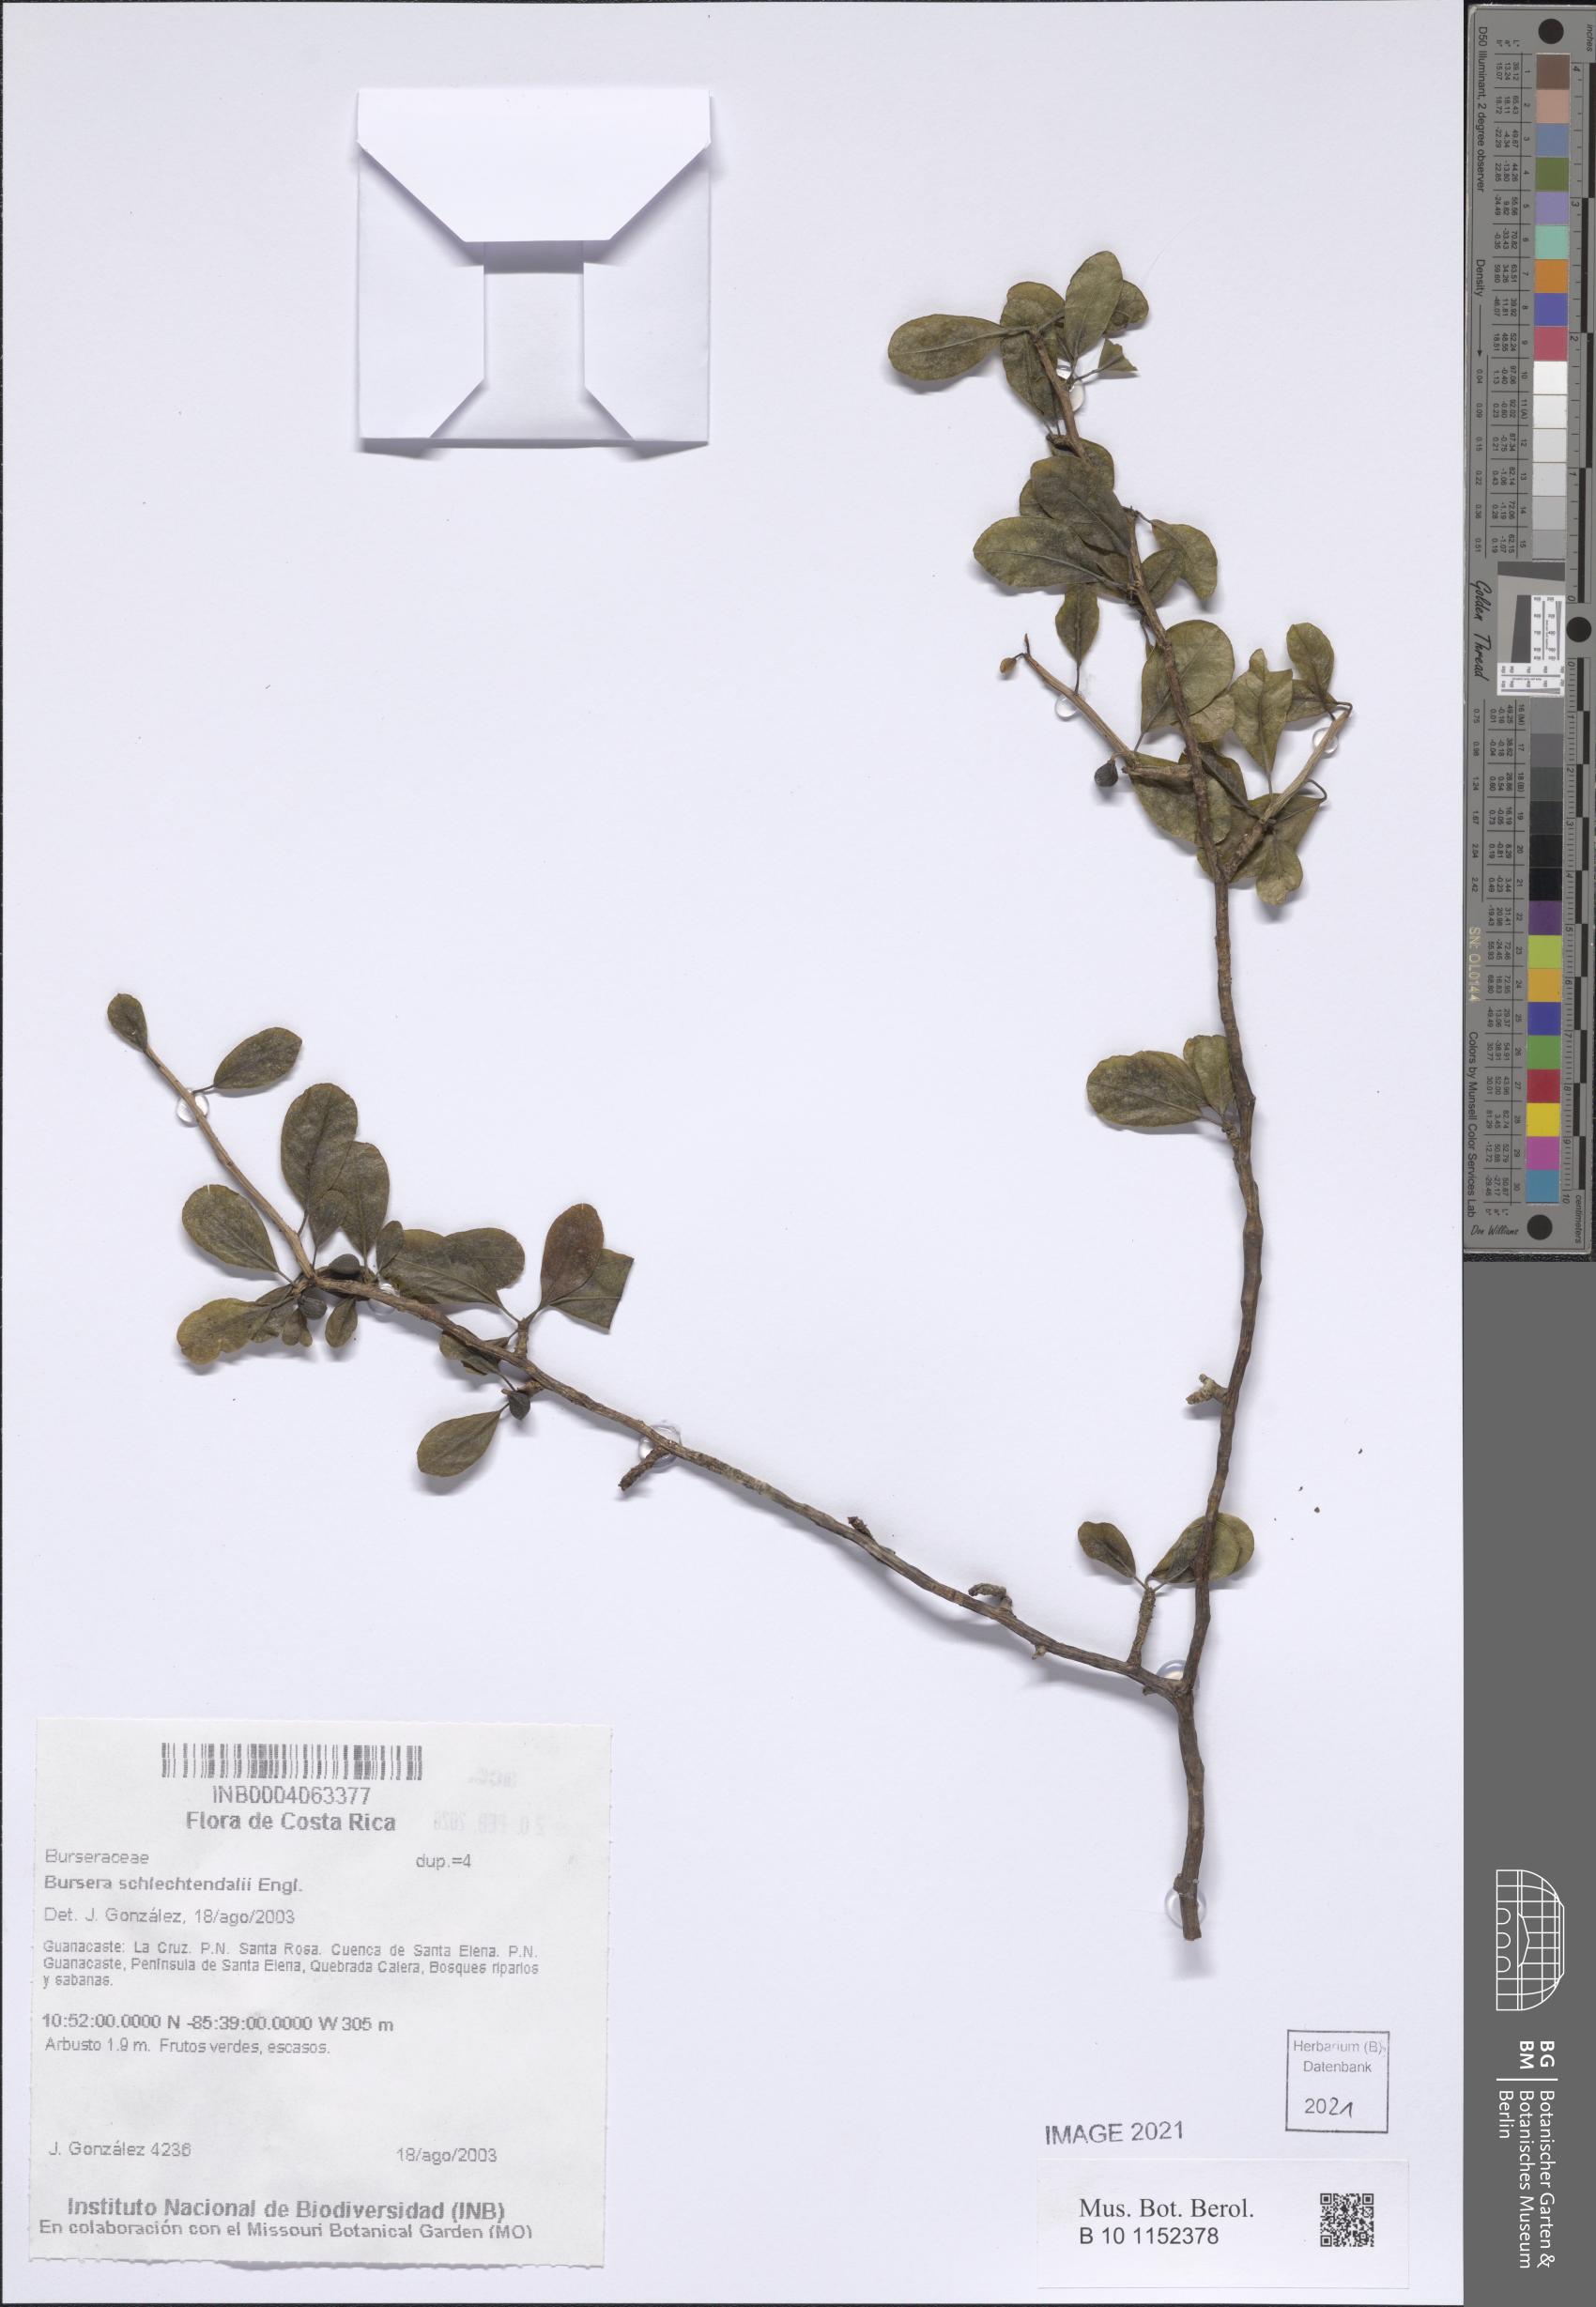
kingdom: Plantae
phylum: Tracheophyta
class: Magnoliopsida
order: Sapindales
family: Burseraceae
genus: Bursera
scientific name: Bursera schlechtendalii
